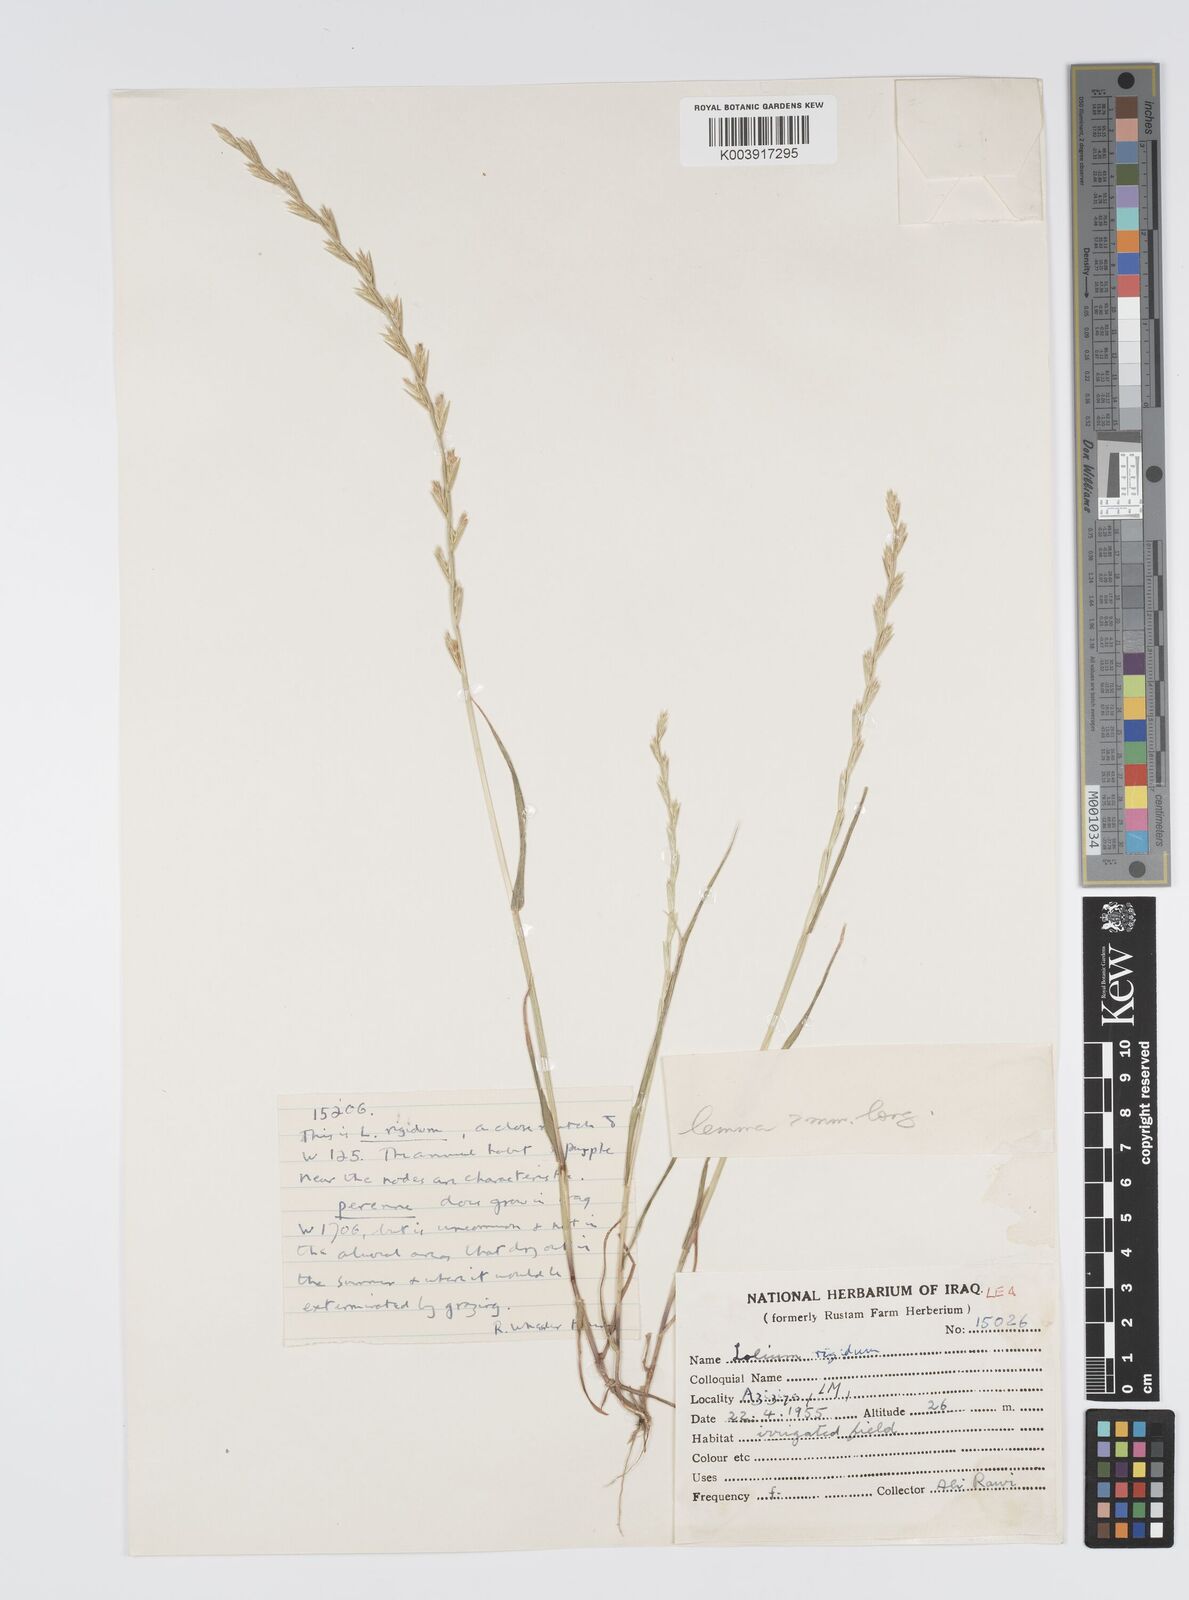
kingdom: Plantae
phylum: Tracheophyta
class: Liliopsida
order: Poales
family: Poaceae
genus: Lolium
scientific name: Lolium rigidum
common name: Wimmera ryegrass
